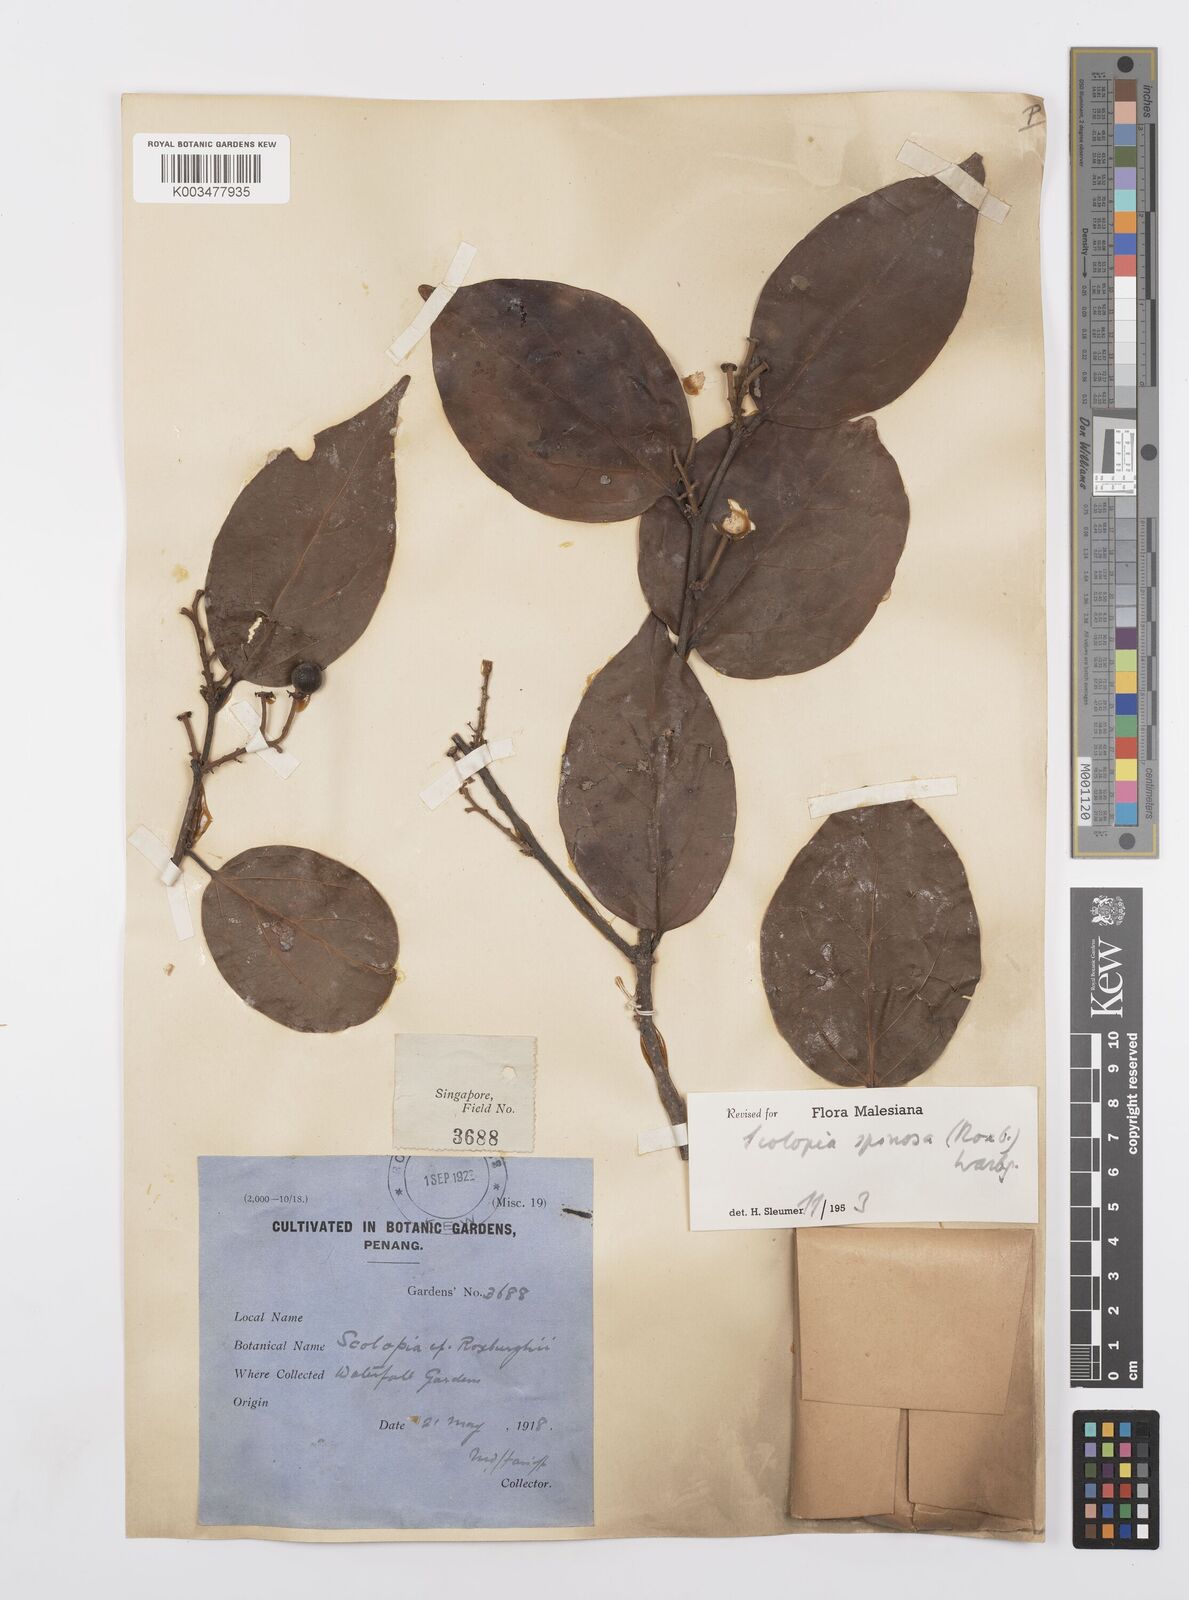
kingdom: Plantae
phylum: Tracheophyta
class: Magnoliopsida
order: Malpighiales
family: Salicaceae
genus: Scolopia
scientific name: Scolopia spinosa
